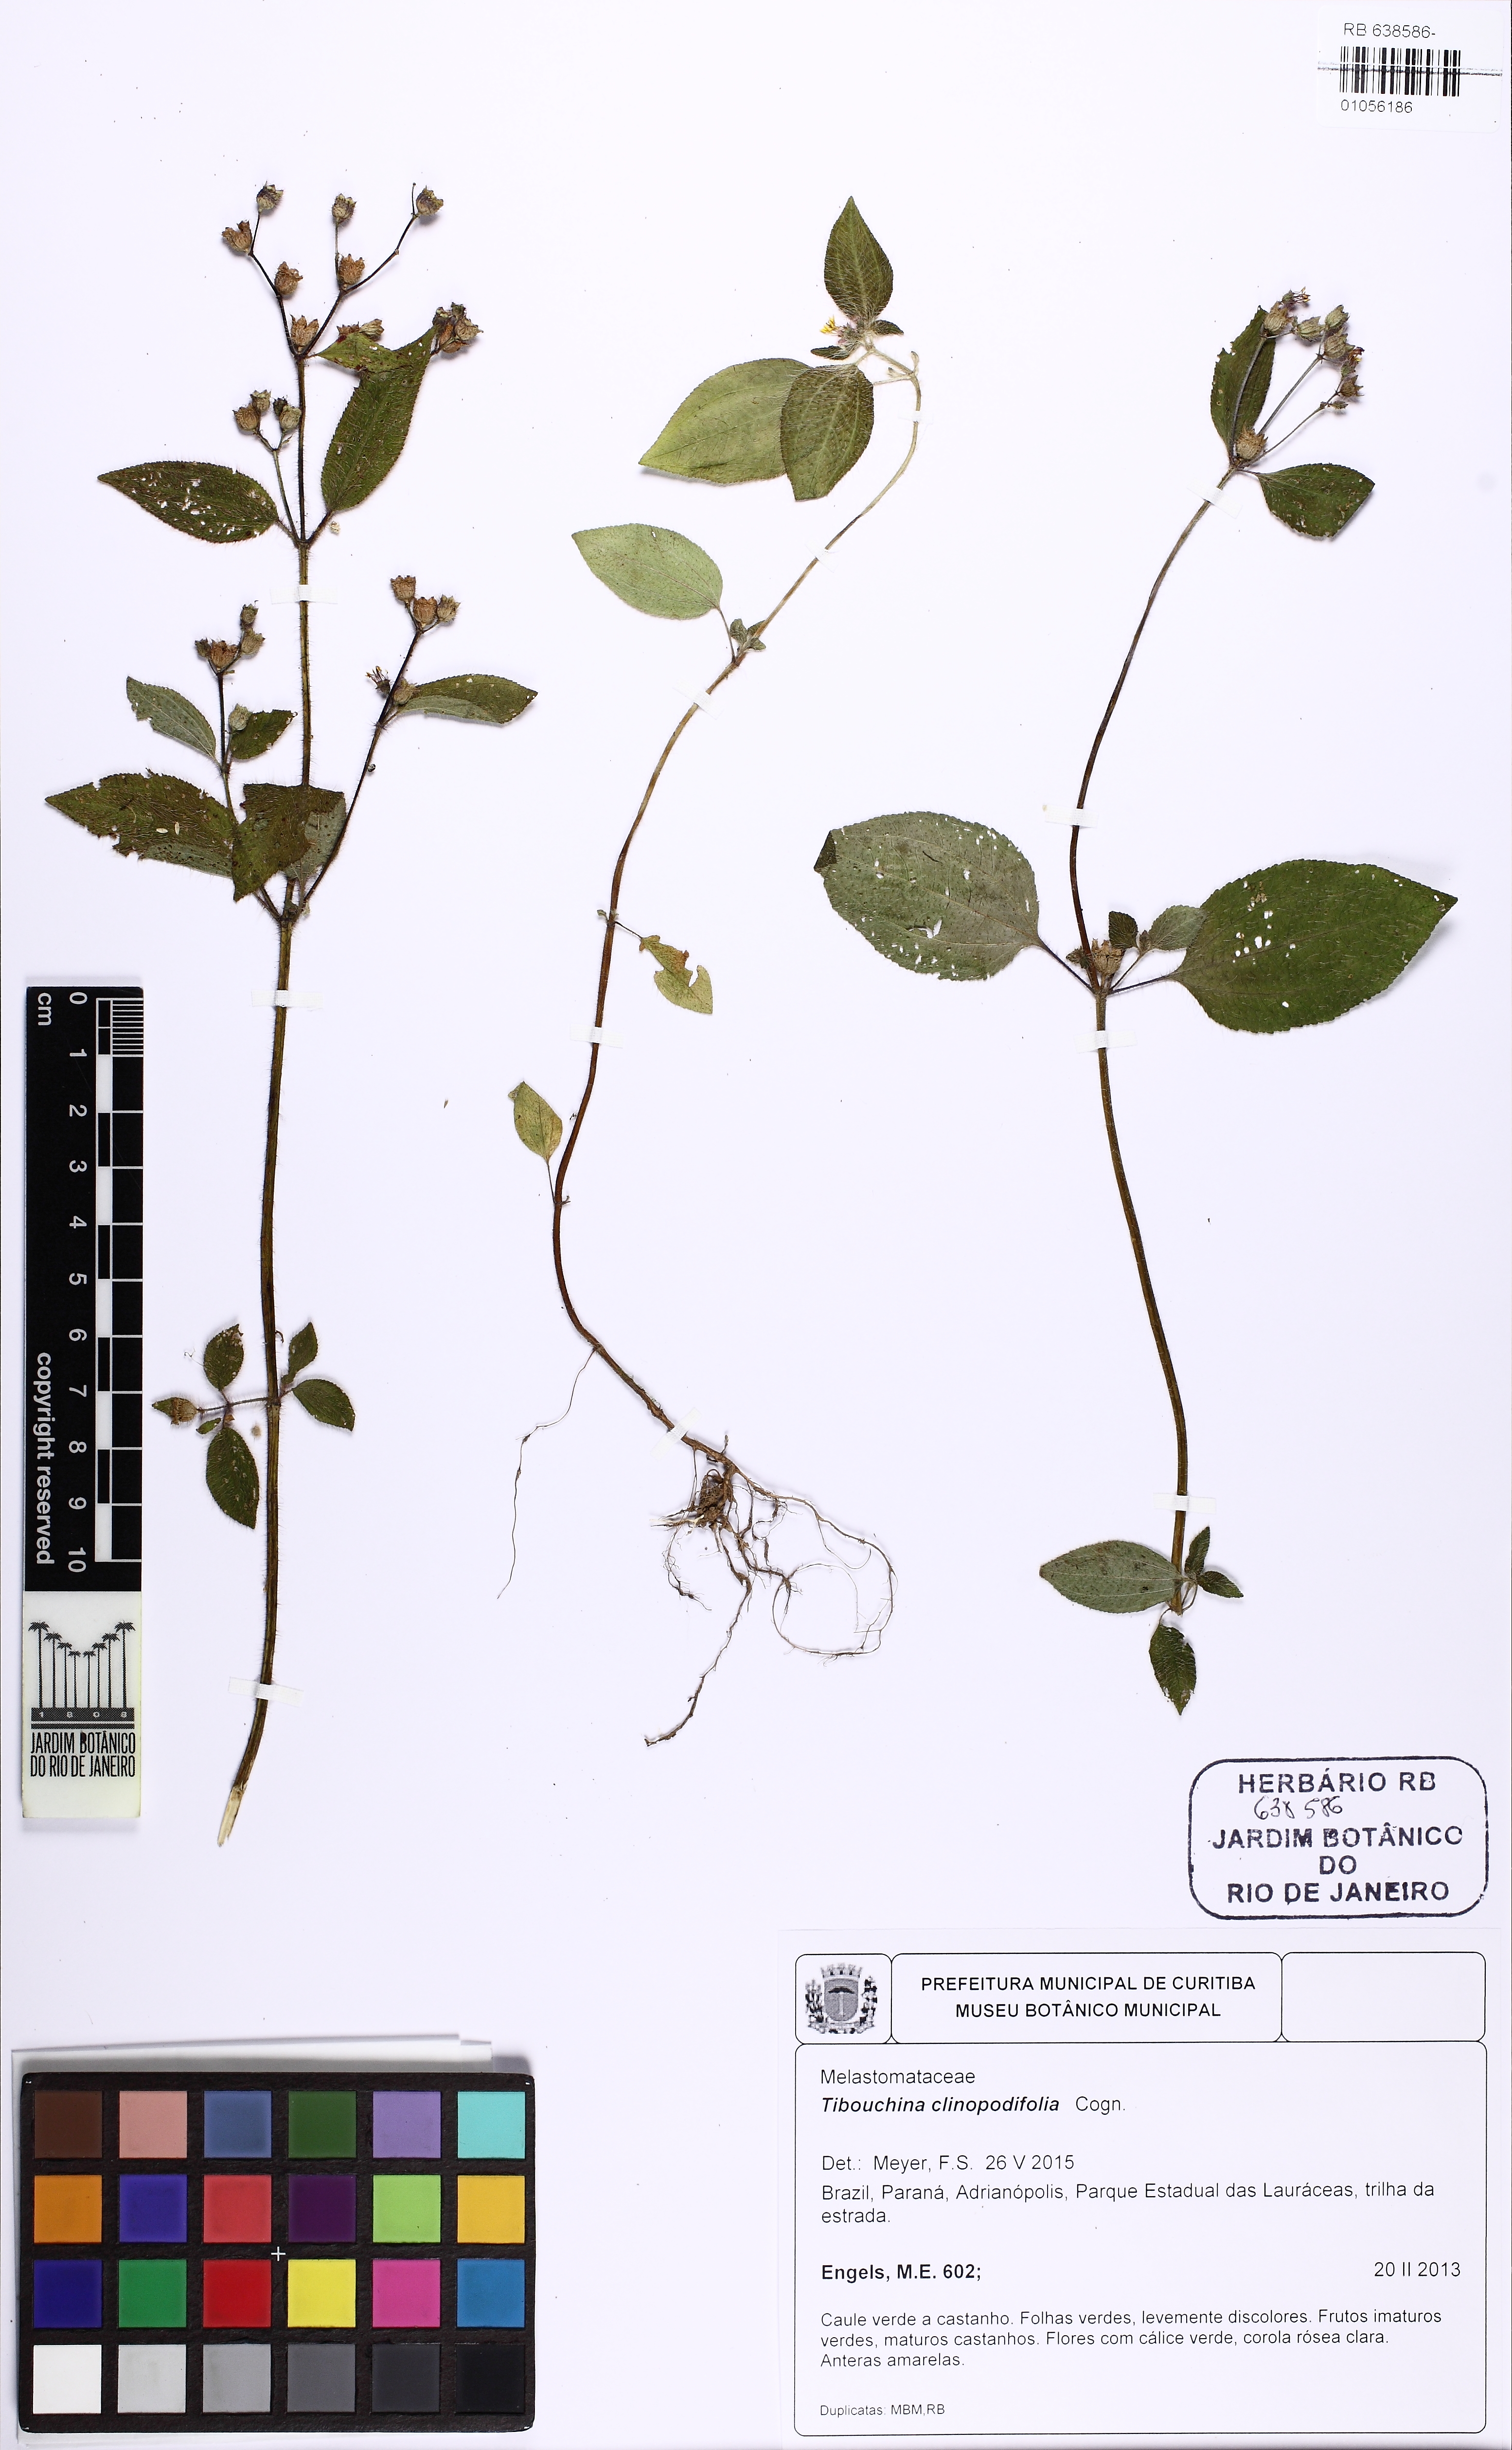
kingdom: Plantae
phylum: Tracheophyta
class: Magnoliopsida
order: Myrtales
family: Melastomataceae
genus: Chaetogastra
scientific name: Chaetogastra clinopodifolia
